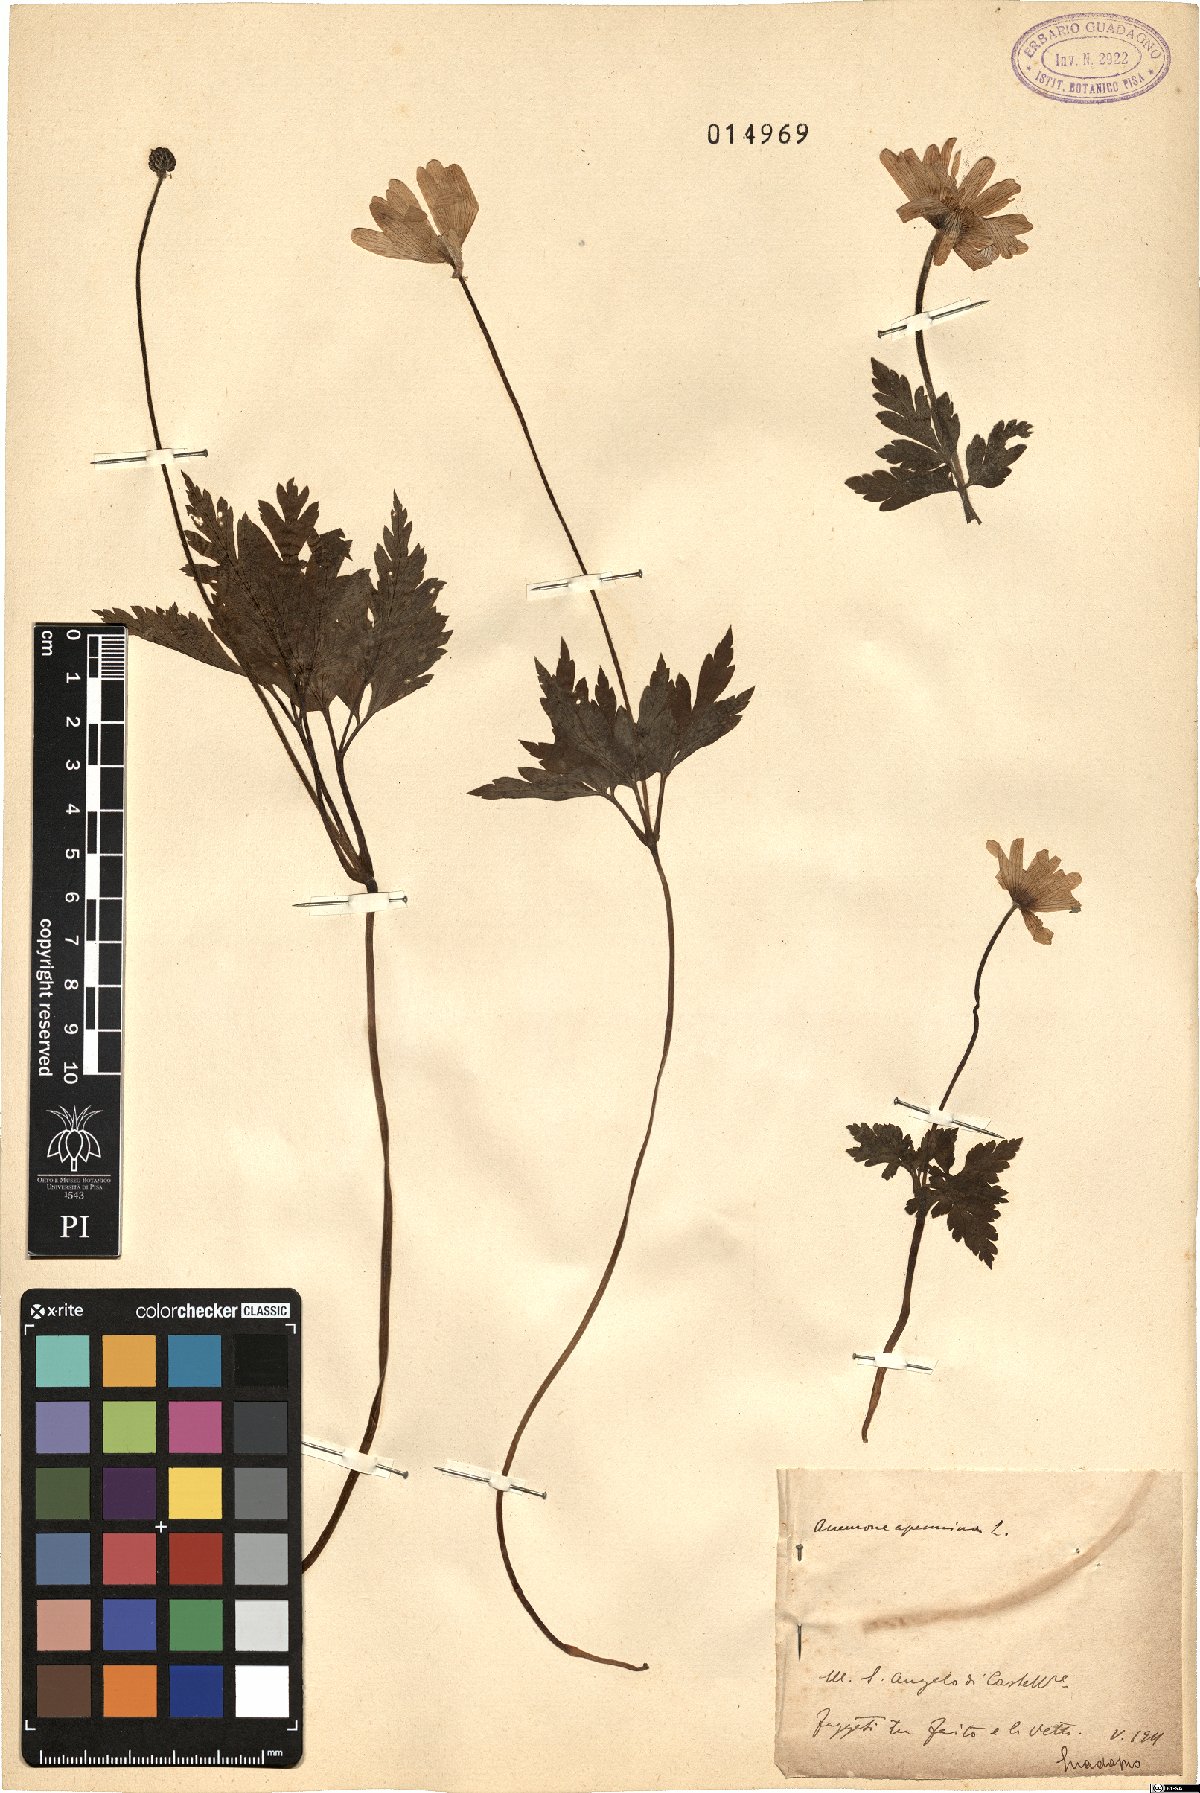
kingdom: Plantae
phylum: Tracheophyta
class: Magnoliopsida
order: Ranunculales
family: Ranunculaceae
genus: Anemone
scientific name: Anemone apennina
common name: Blue anemone
